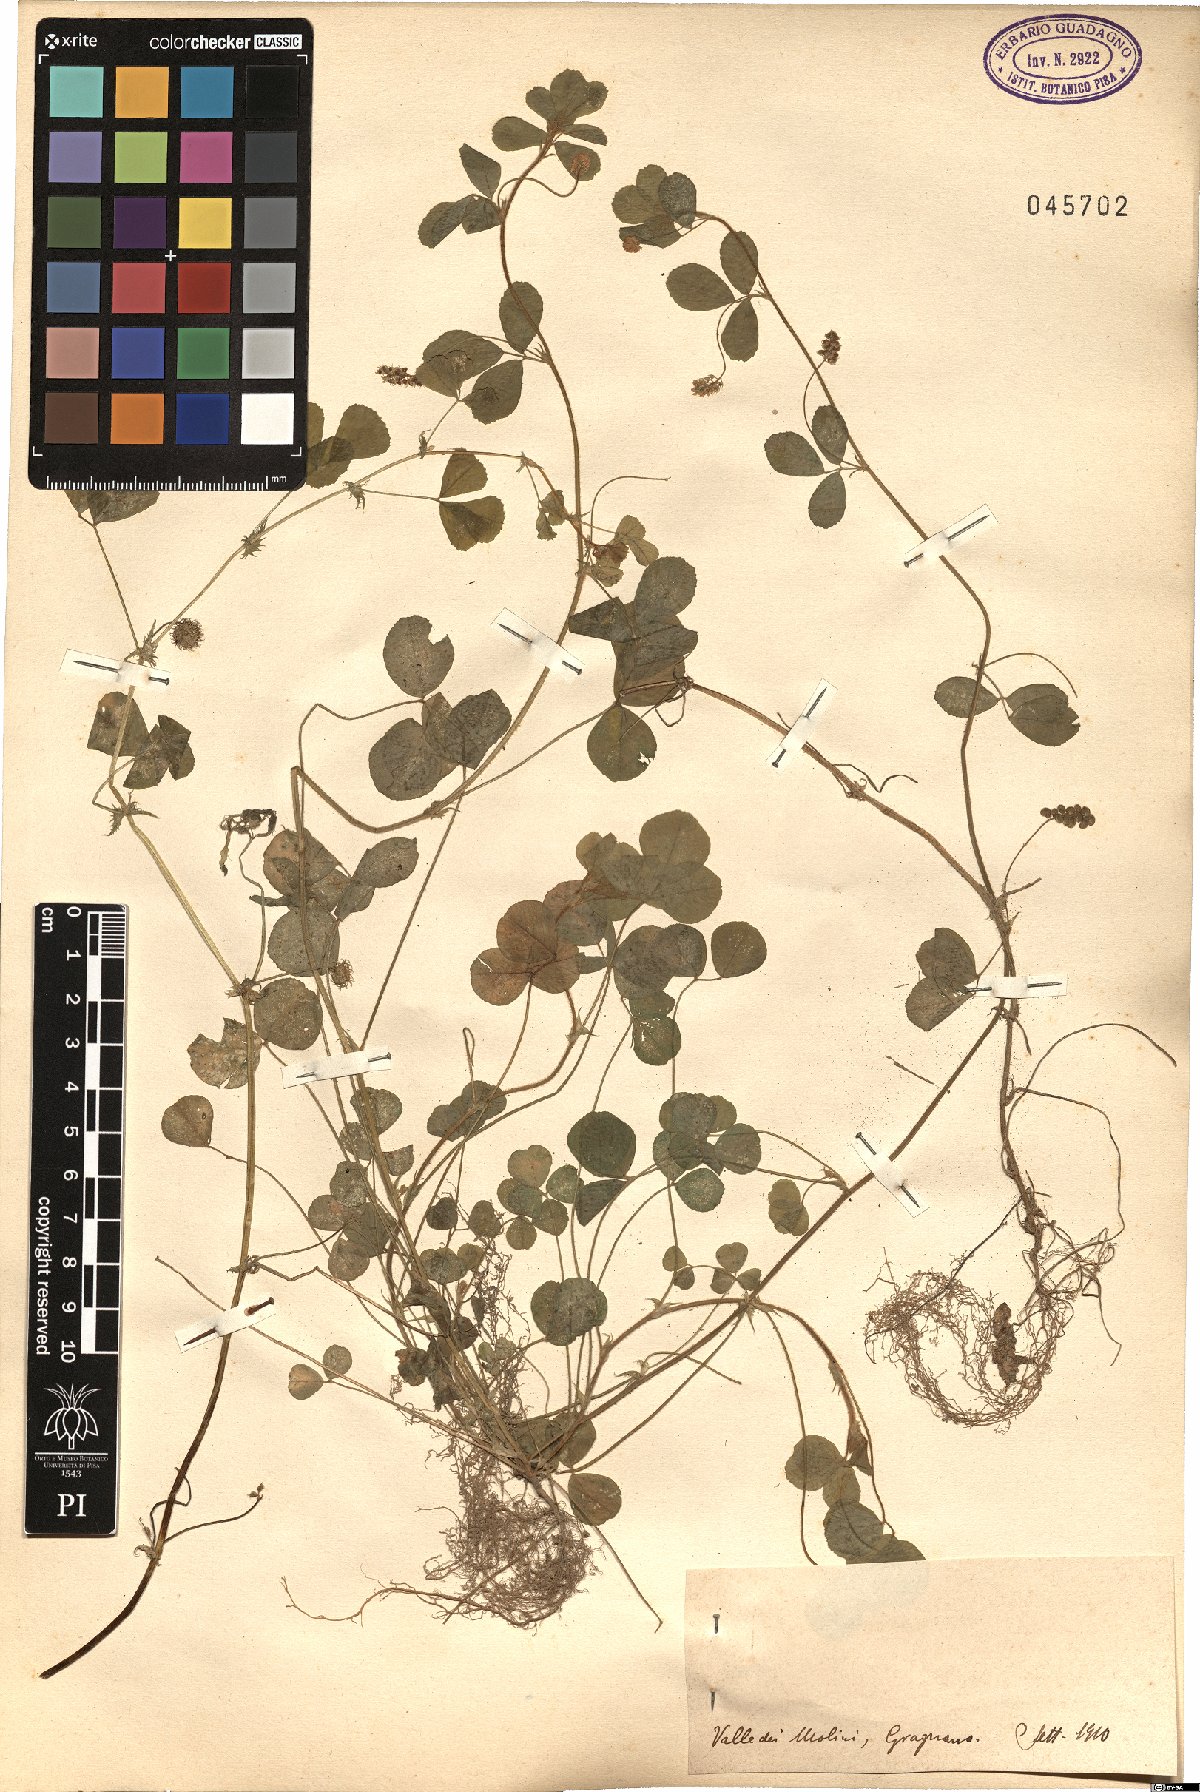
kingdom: Plantae
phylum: Tracheophyta
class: Magnoliopsida
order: Fabales
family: Fabaceae
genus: Medicago
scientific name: Medicago
